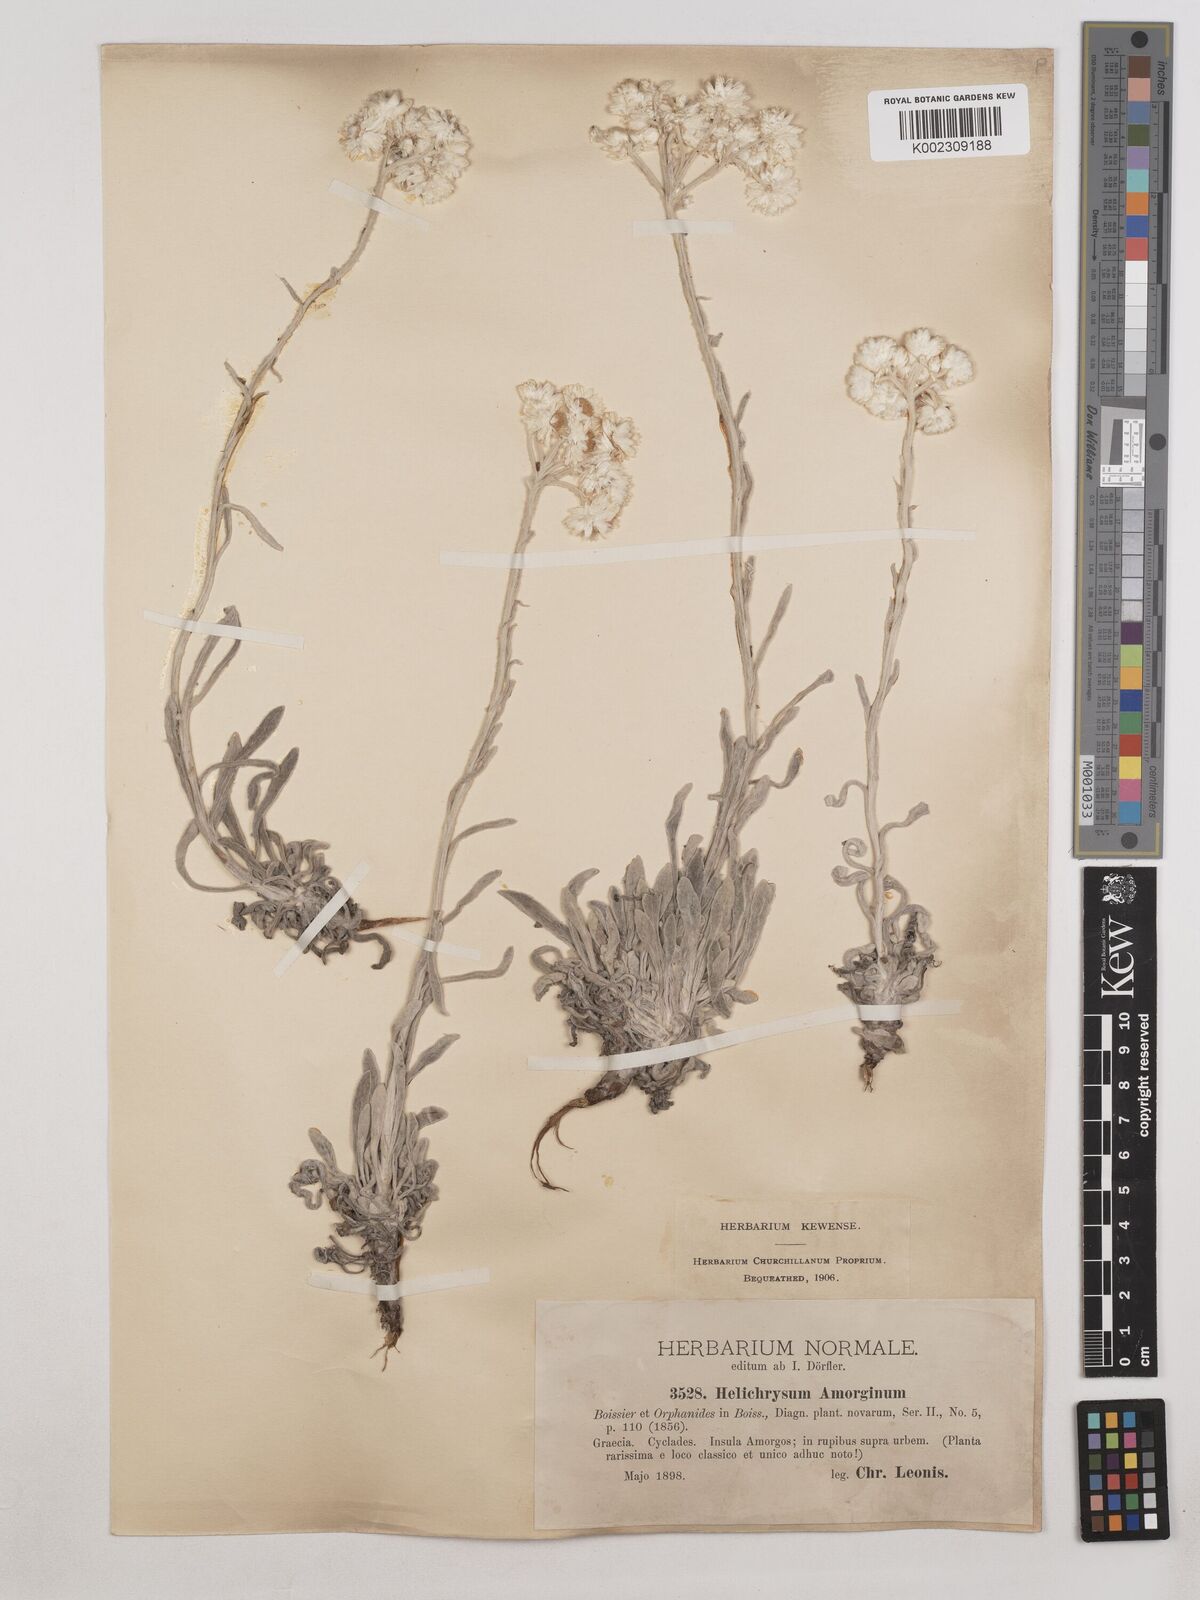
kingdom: Plantae
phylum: Tracheophyta
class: Magnoliopsida
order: Asterales
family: Asteraceae
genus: Helichrysum
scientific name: Helichrysum amorginum
